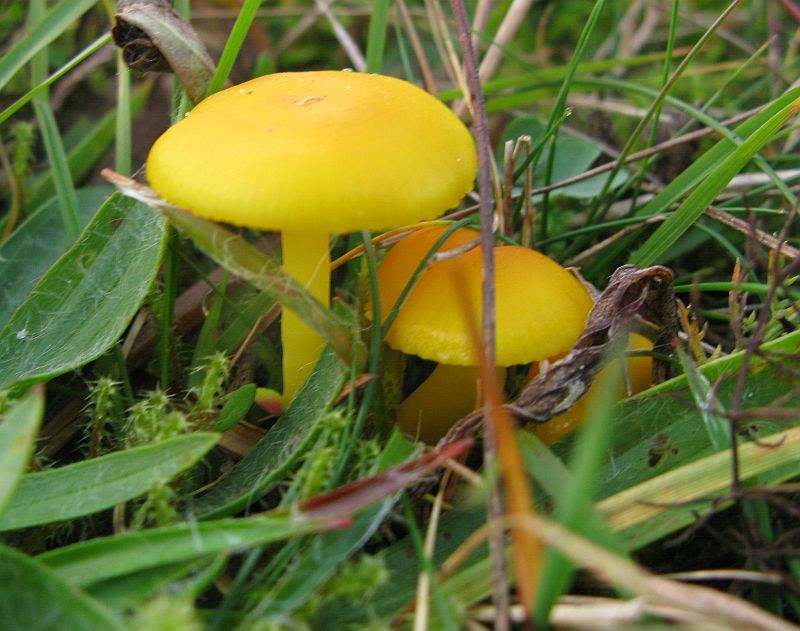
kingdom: Fungi
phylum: Basidiomycota
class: Agaricomycetes
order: Agaricales
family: Hygrophoraceae
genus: Hygrocybe
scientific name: Hygrocybe chlorophana
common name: gul vokshat
